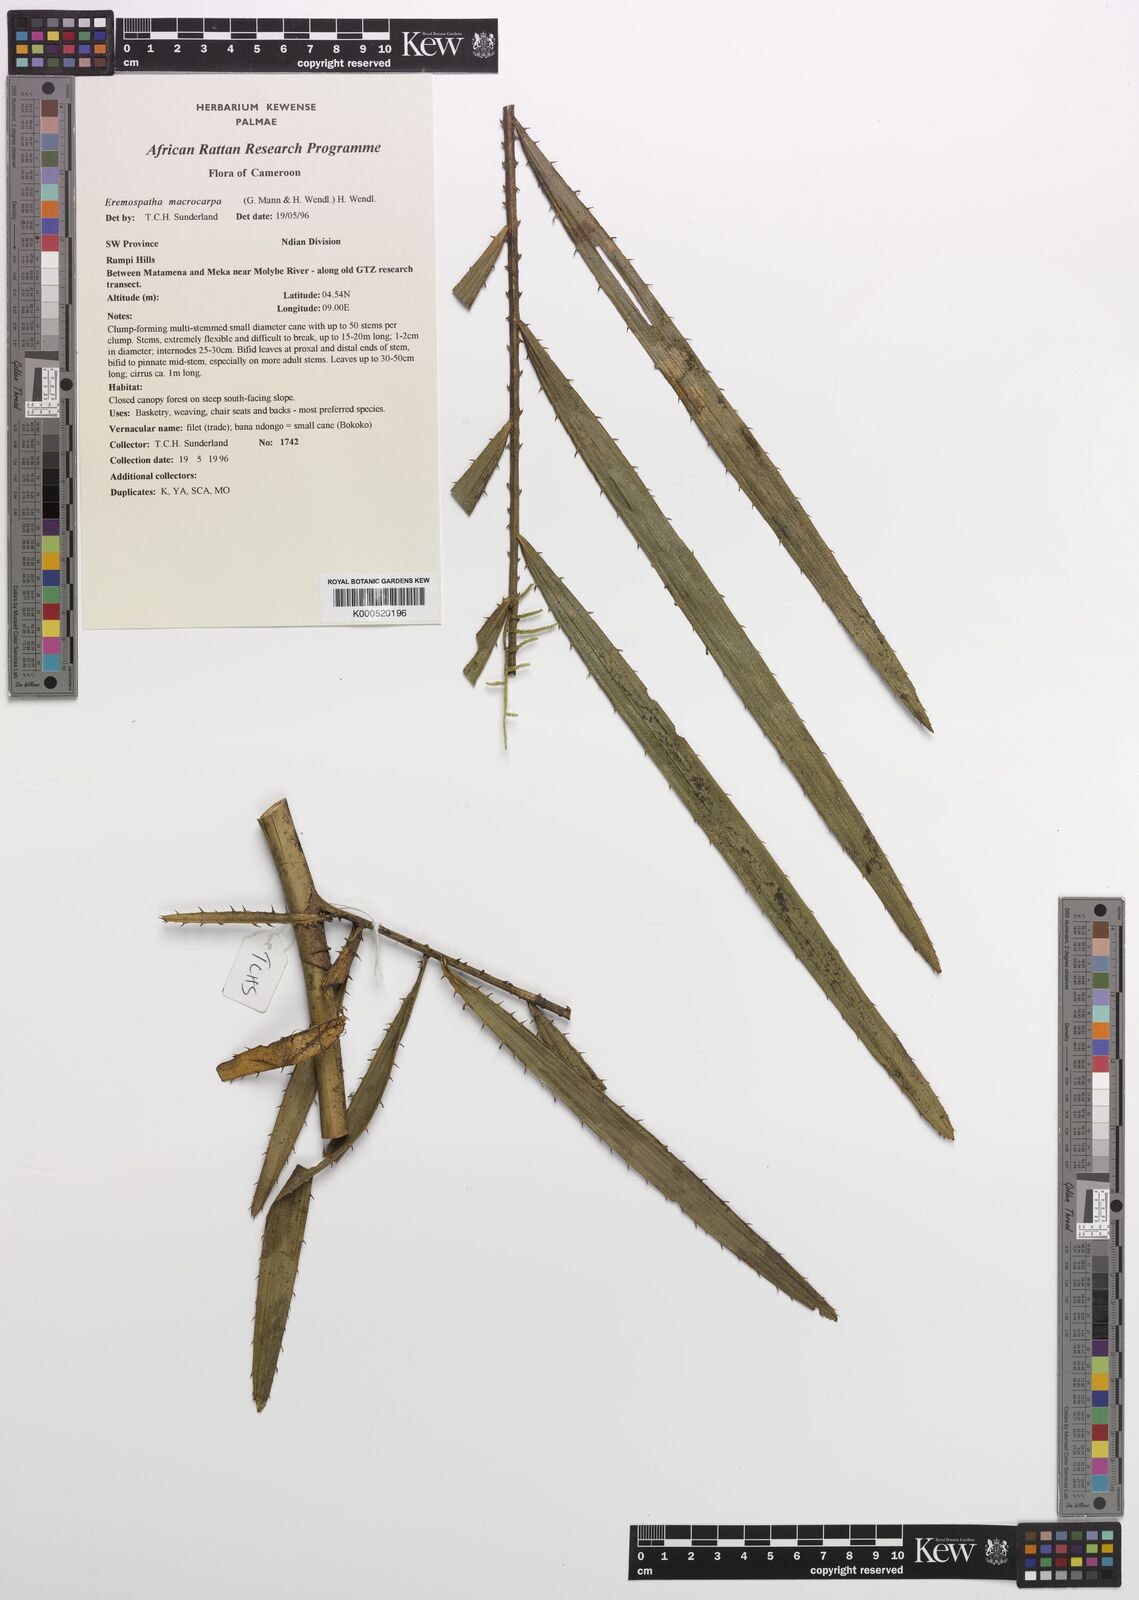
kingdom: Plantae
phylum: Tracheophyta
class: Liliopsida
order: Arecales
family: Arecaceae
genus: Eremospatha
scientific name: Eremospatha
